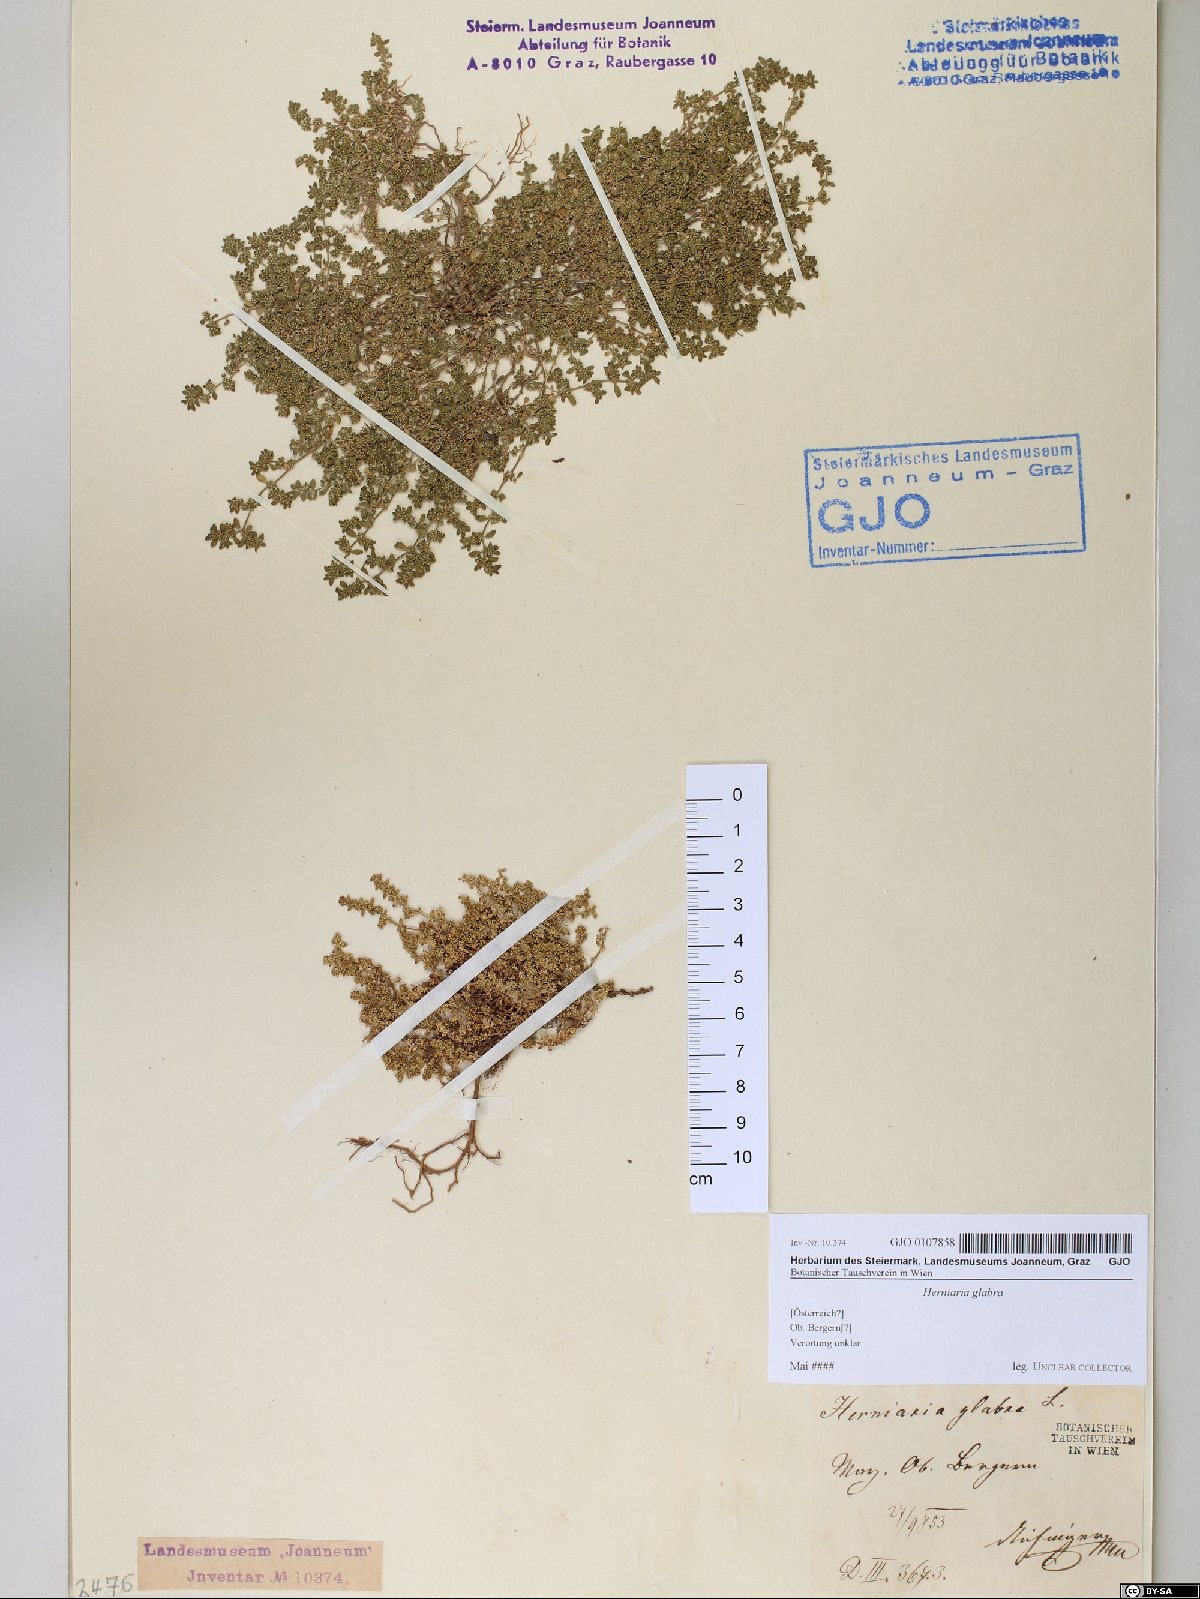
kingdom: Plantae
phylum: Tracheophyta
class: Magnoliopsida
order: Caryophyllales
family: Caryophyllaceae
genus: Herniaria
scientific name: Herniaria glabra
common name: Smooth rupturewort
